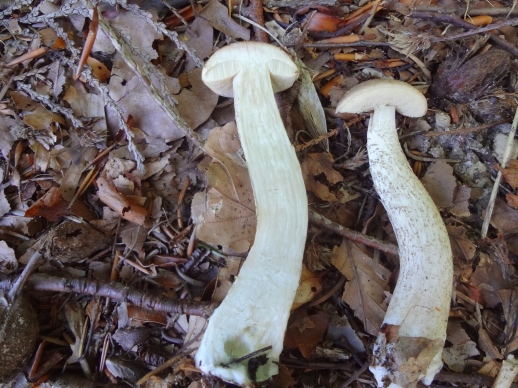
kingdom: Fungi
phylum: Basidiomycota
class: Agaricomycetes
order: Boletales
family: Boletaceae
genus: Leccinum
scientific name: Leccinum
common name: skælrørhat
